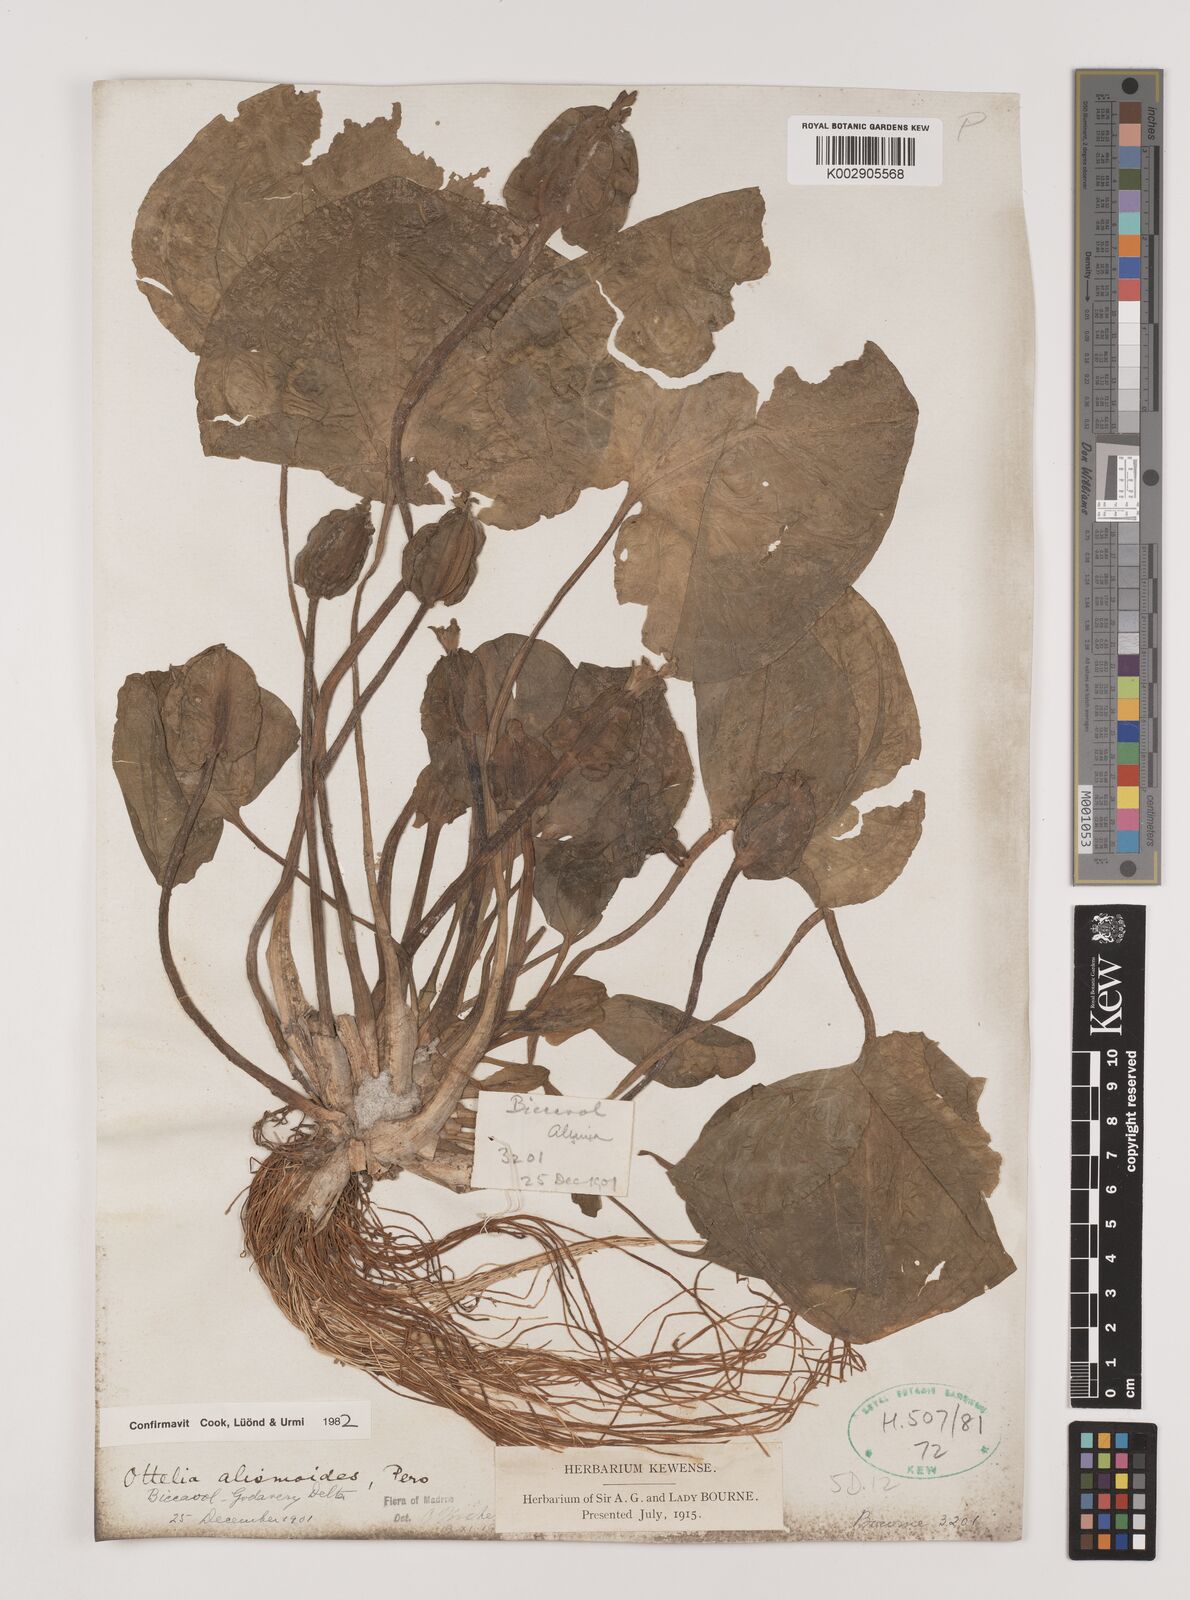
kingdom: Plantae
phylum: Tracheophyta
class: Liliopsida
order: Alismatales
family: Hydrocharitaceae
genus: Ottelia
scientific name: Ottelia alismoides
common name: Duck-lettuce
